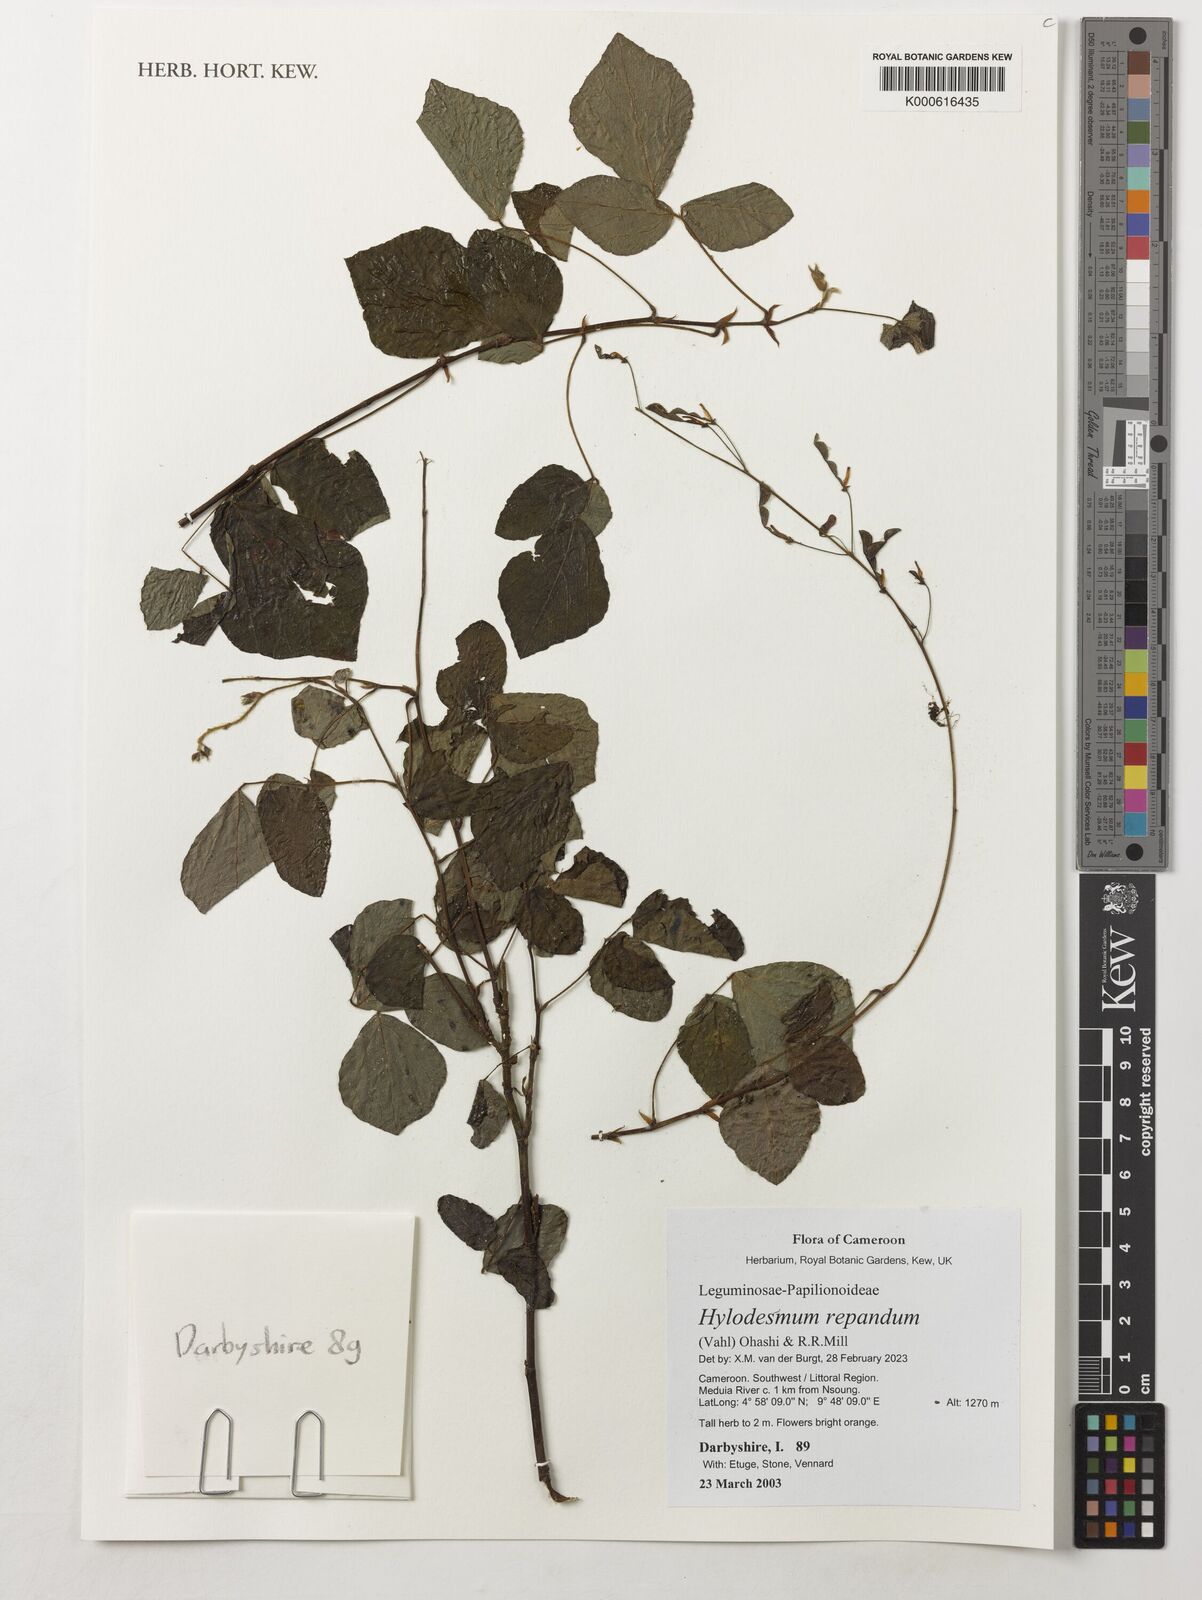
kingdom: Plantae
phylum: Tracheophyta
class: Magnoliopsida
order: Fabales
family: Fabaceae
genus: Hylodesmum
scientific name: Hylodesmum repandum
